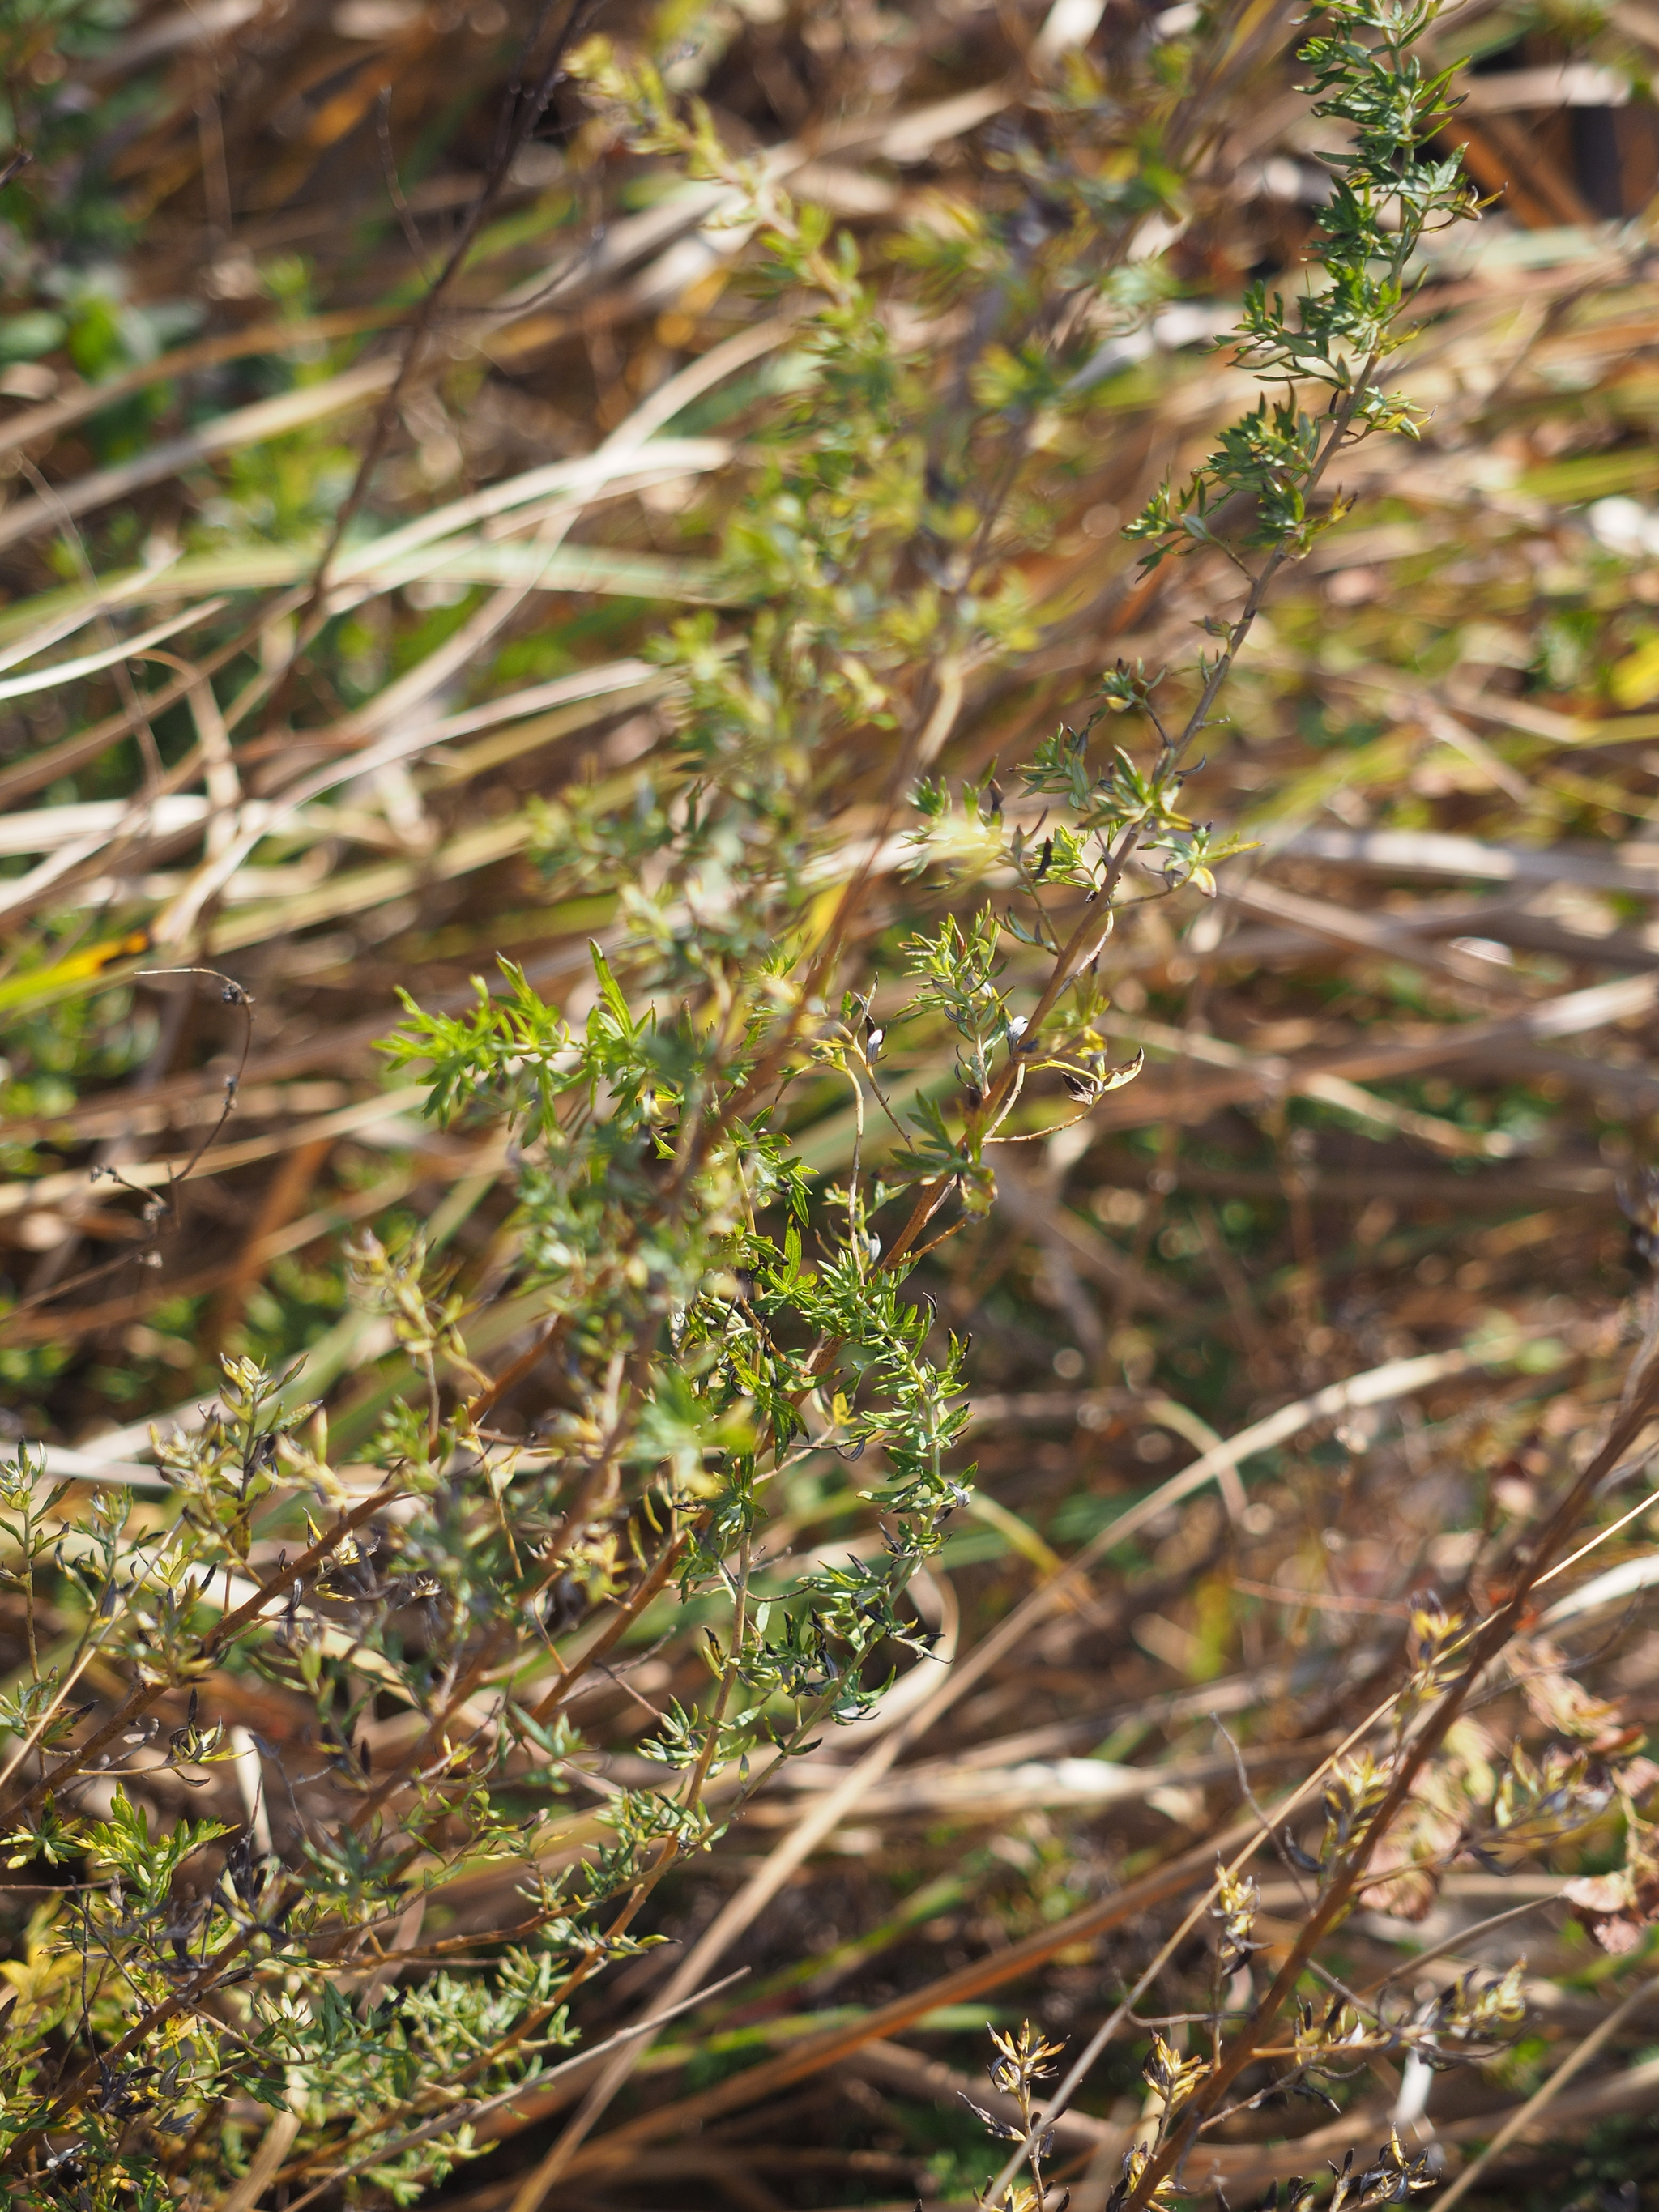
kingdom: Plantae
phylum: Tracheophyta
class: Magnoliopsida
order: Asterales
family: Asteraceae
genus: Artemisia
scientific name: Artemisia lancea
